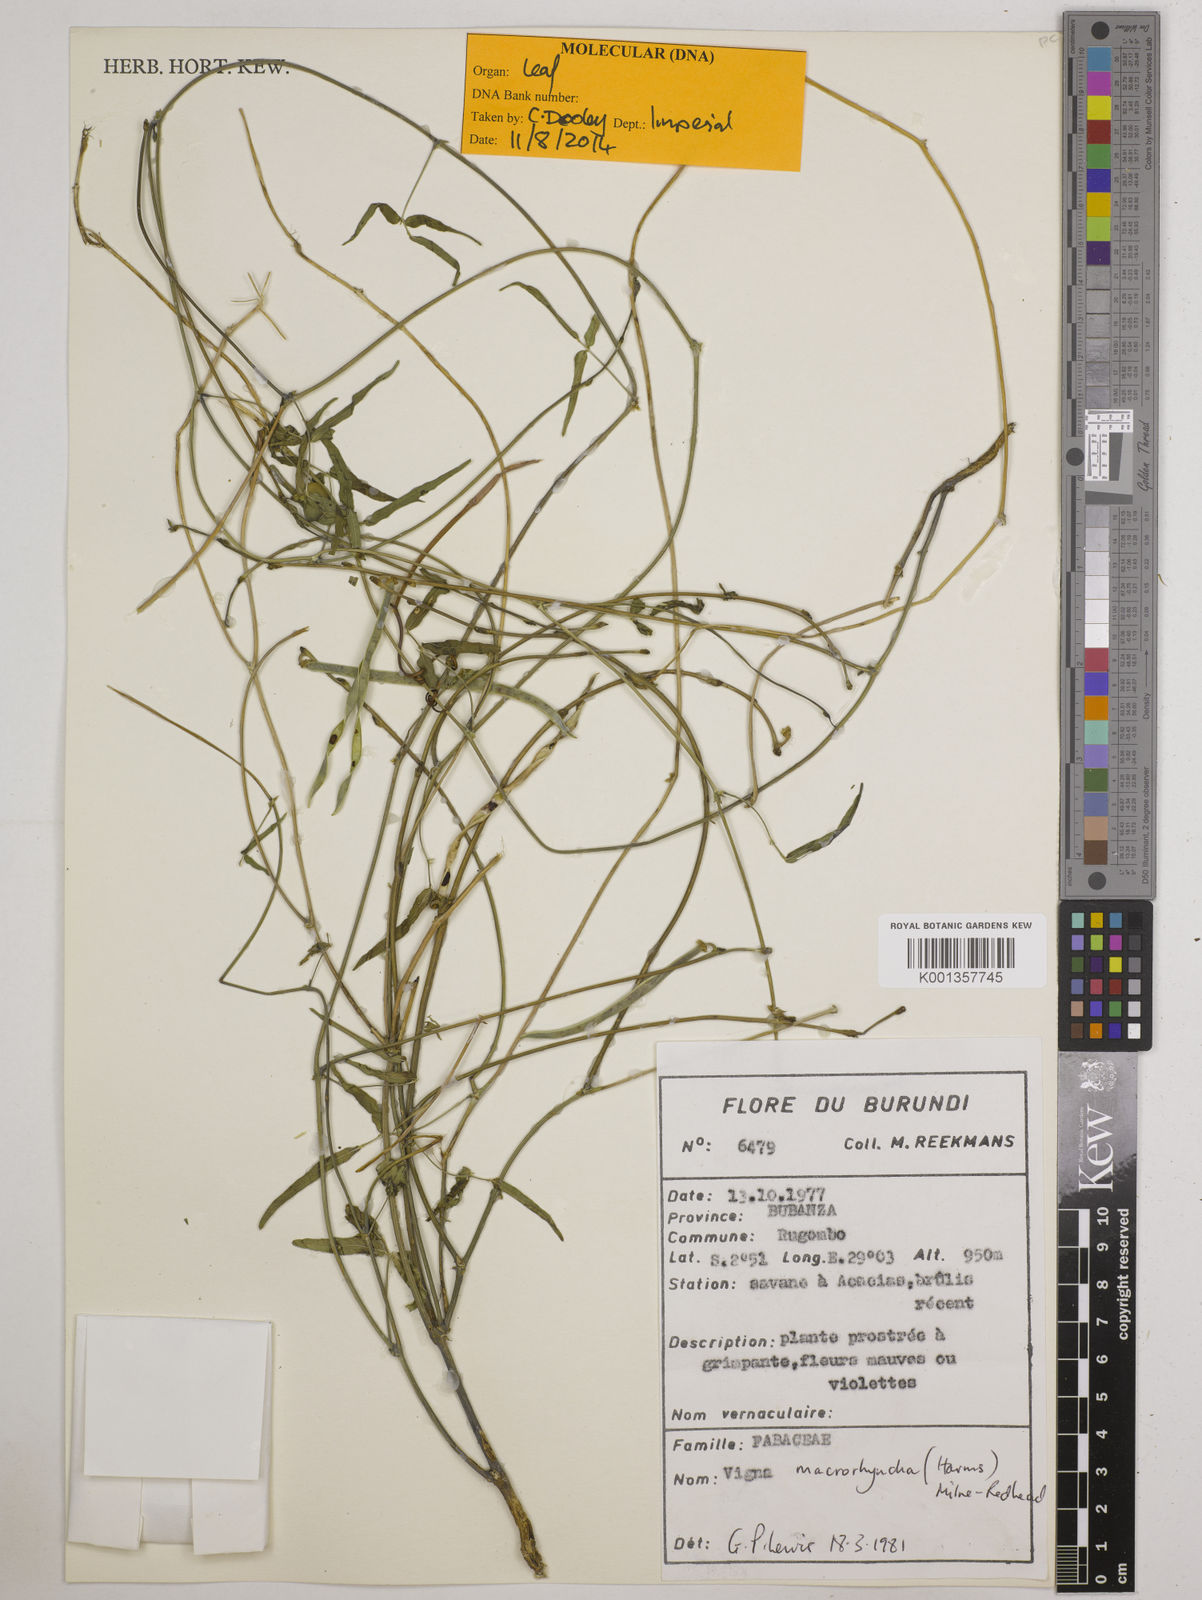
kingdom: Plantae
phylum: Tracheophyta
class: Magnoliopsida
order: Fabales
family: Fabaceae
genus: Wajira
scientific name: Wajira grahamiana
